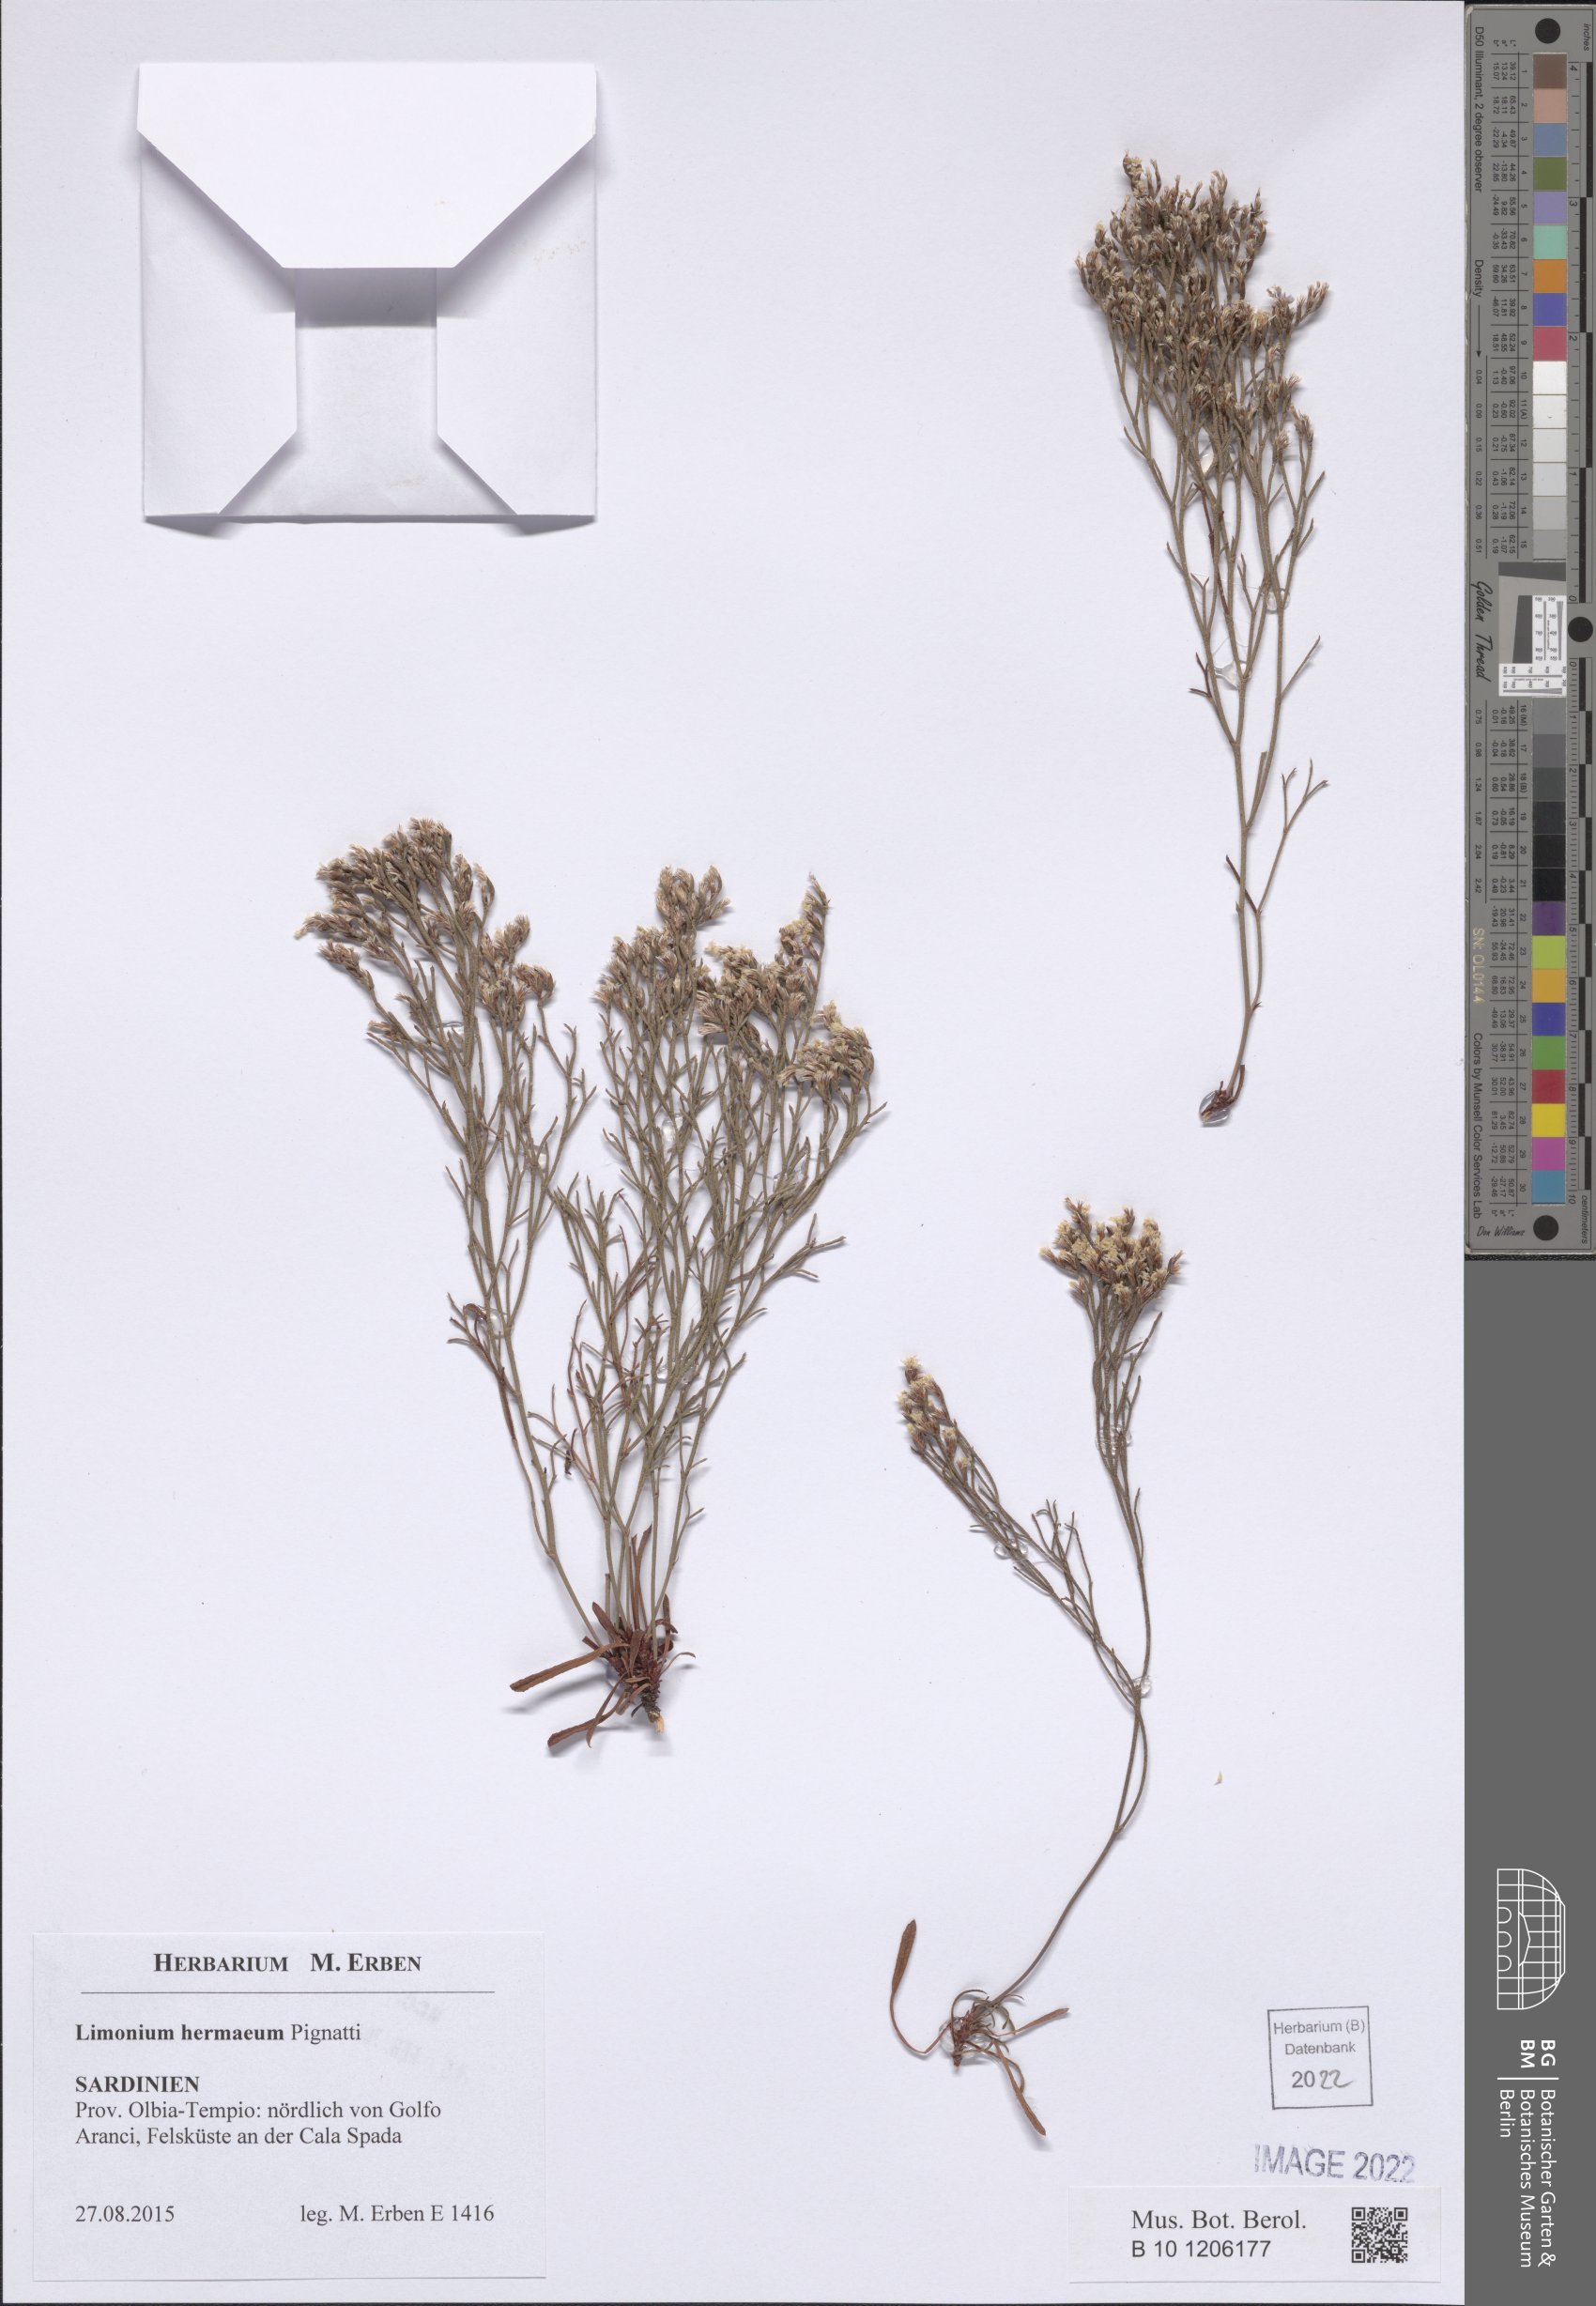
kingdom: Plantae
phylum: Tracheophyta
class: Magnoliopsida
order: Caryophyllales
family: Plumbaginaceae
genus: Limonium
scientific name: Limonium hermaeum
